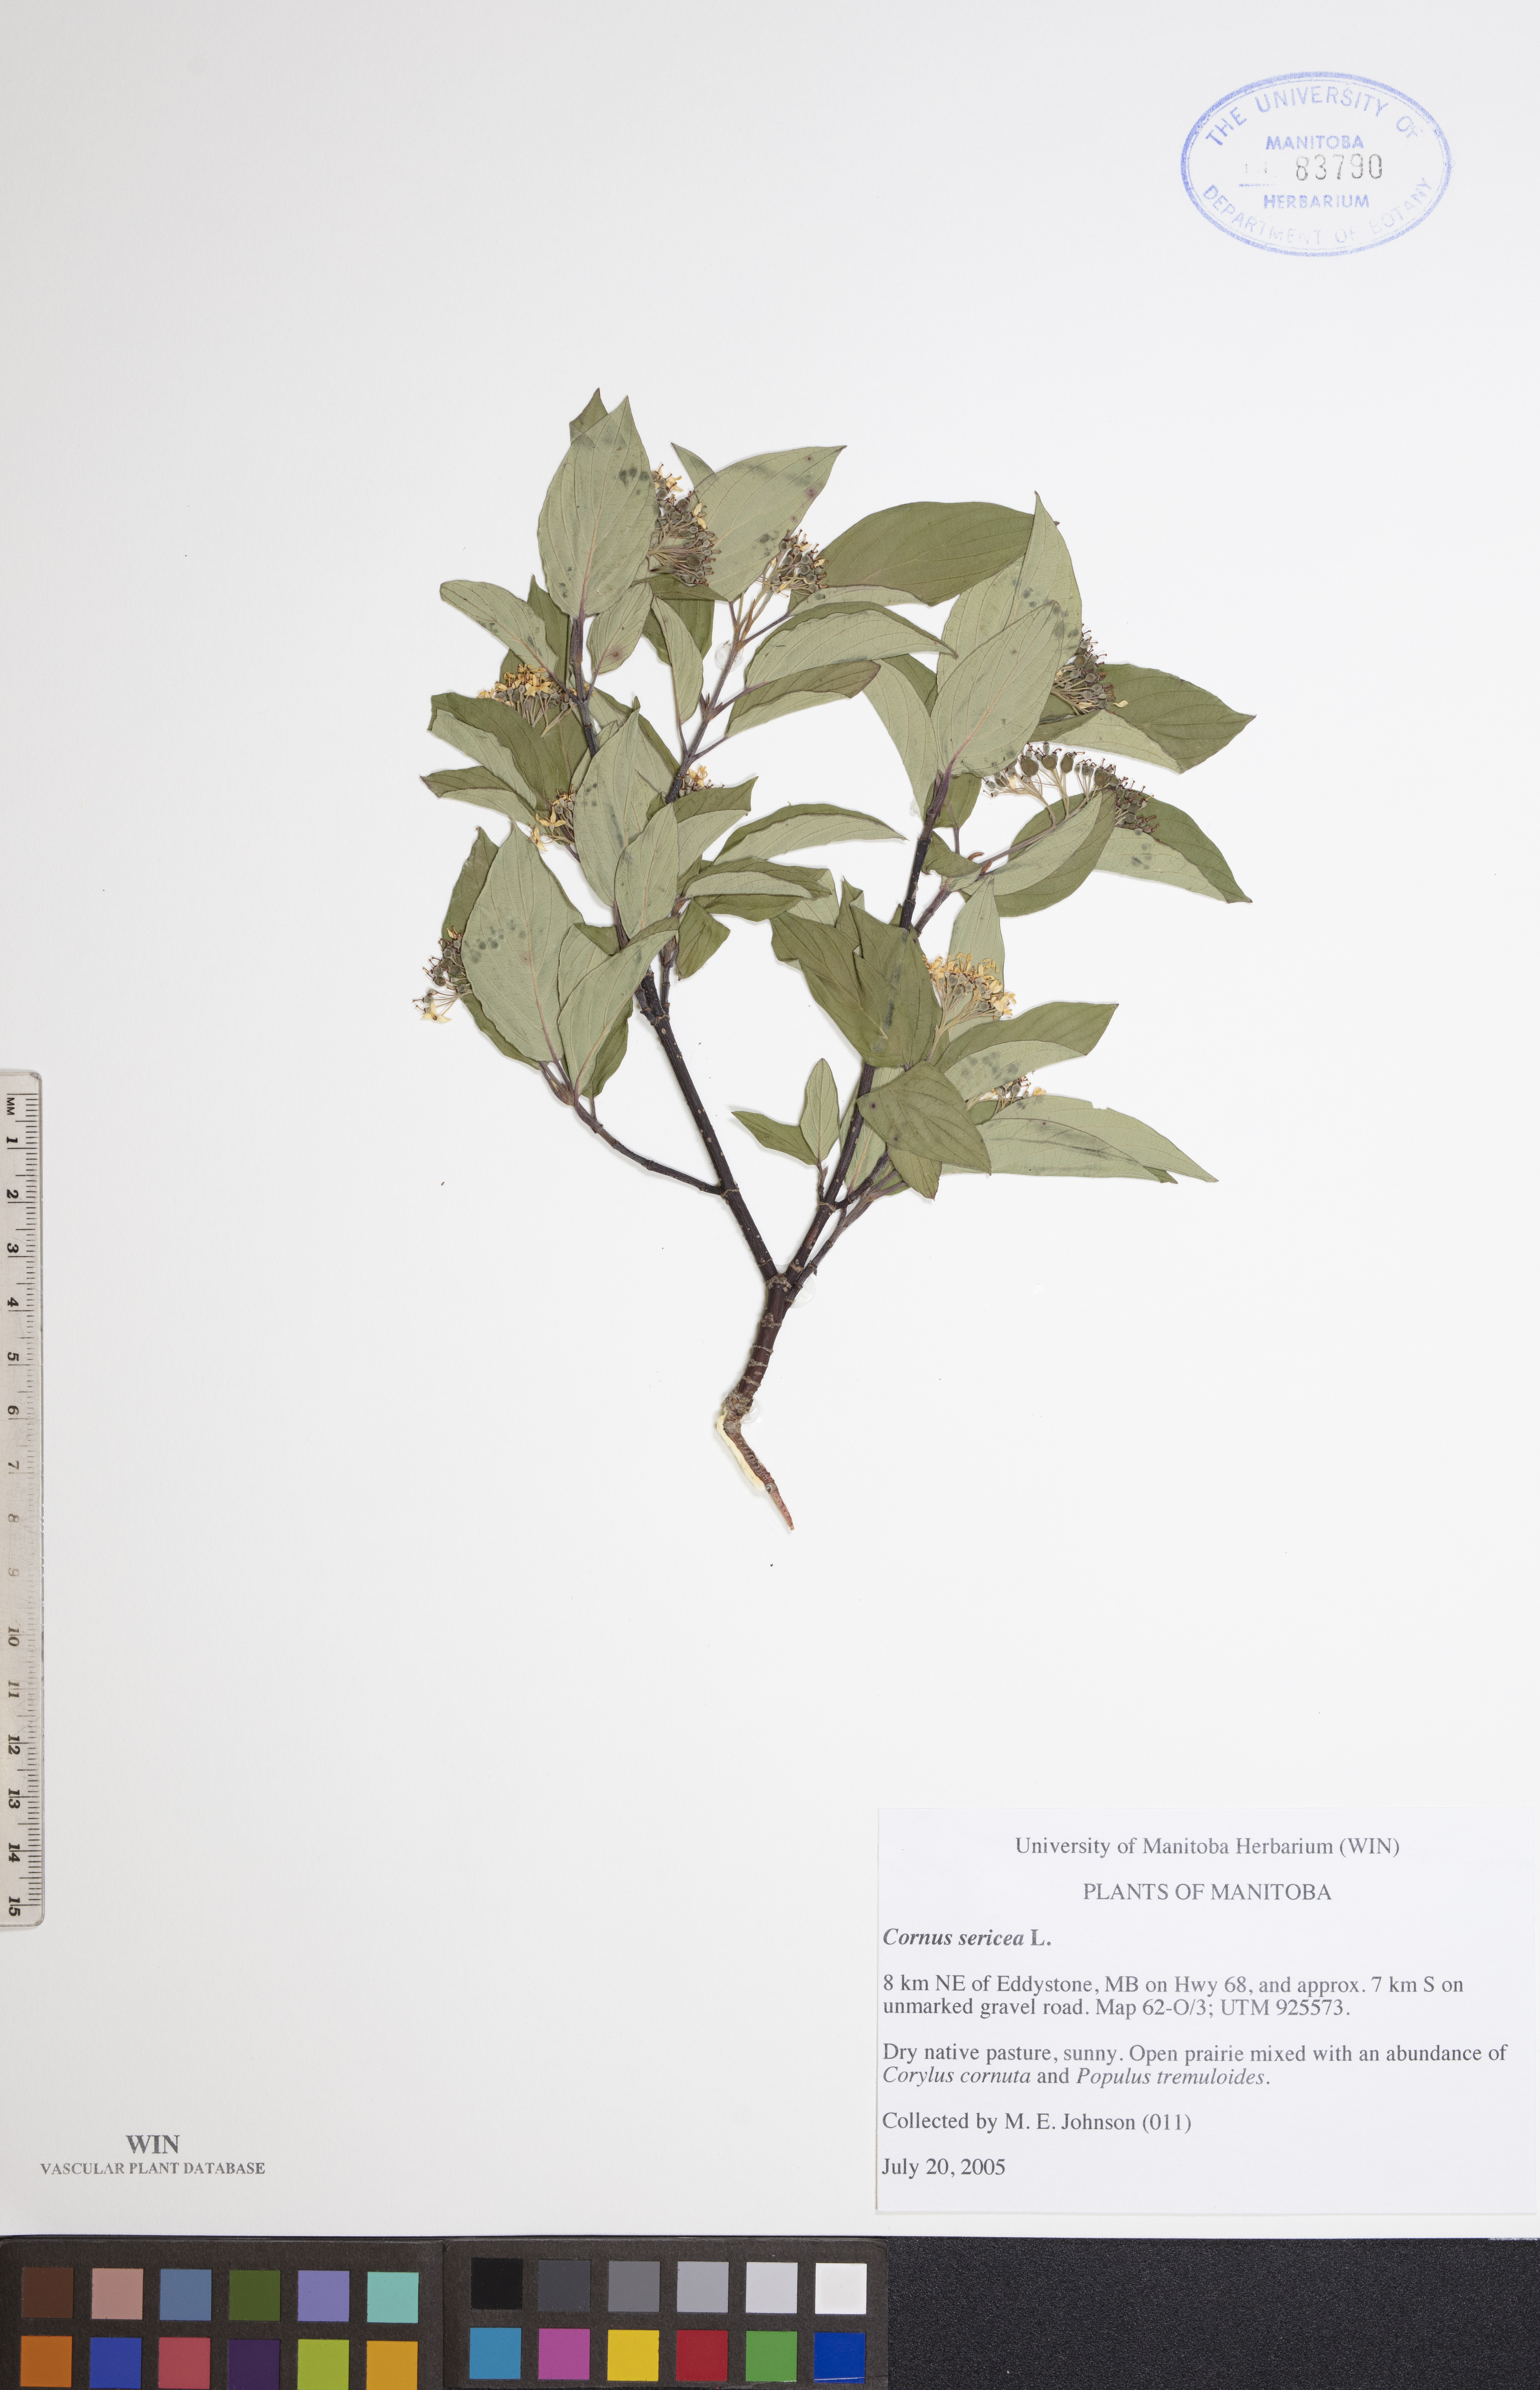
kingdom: Plantae
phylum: Tracheophyta
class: Magnoliopsida
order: Cornales
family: Cornaceae
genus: Cornus
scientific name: Cornus sericea
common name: Red-osier dogwood
